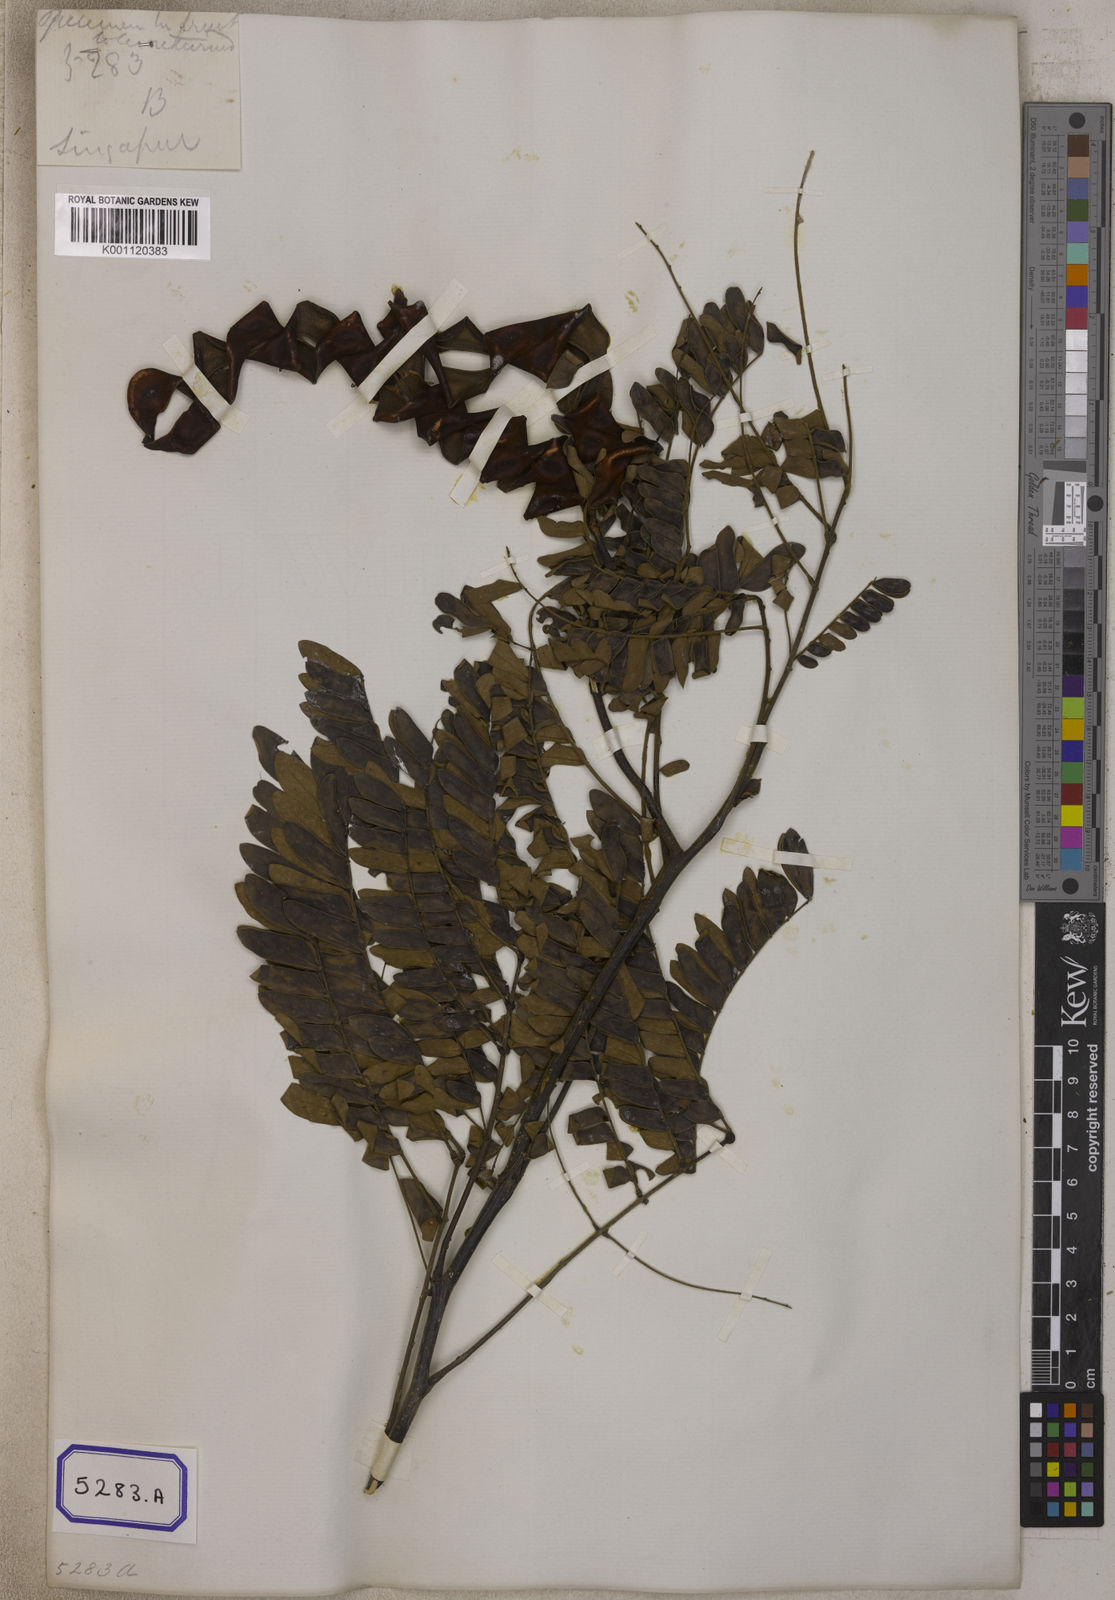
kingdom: Plantae
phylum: Tracheophyta
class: Magnoliopsida
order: Fabales
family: Fabaceae
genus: Archidendron
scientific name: Archidendron contortum
